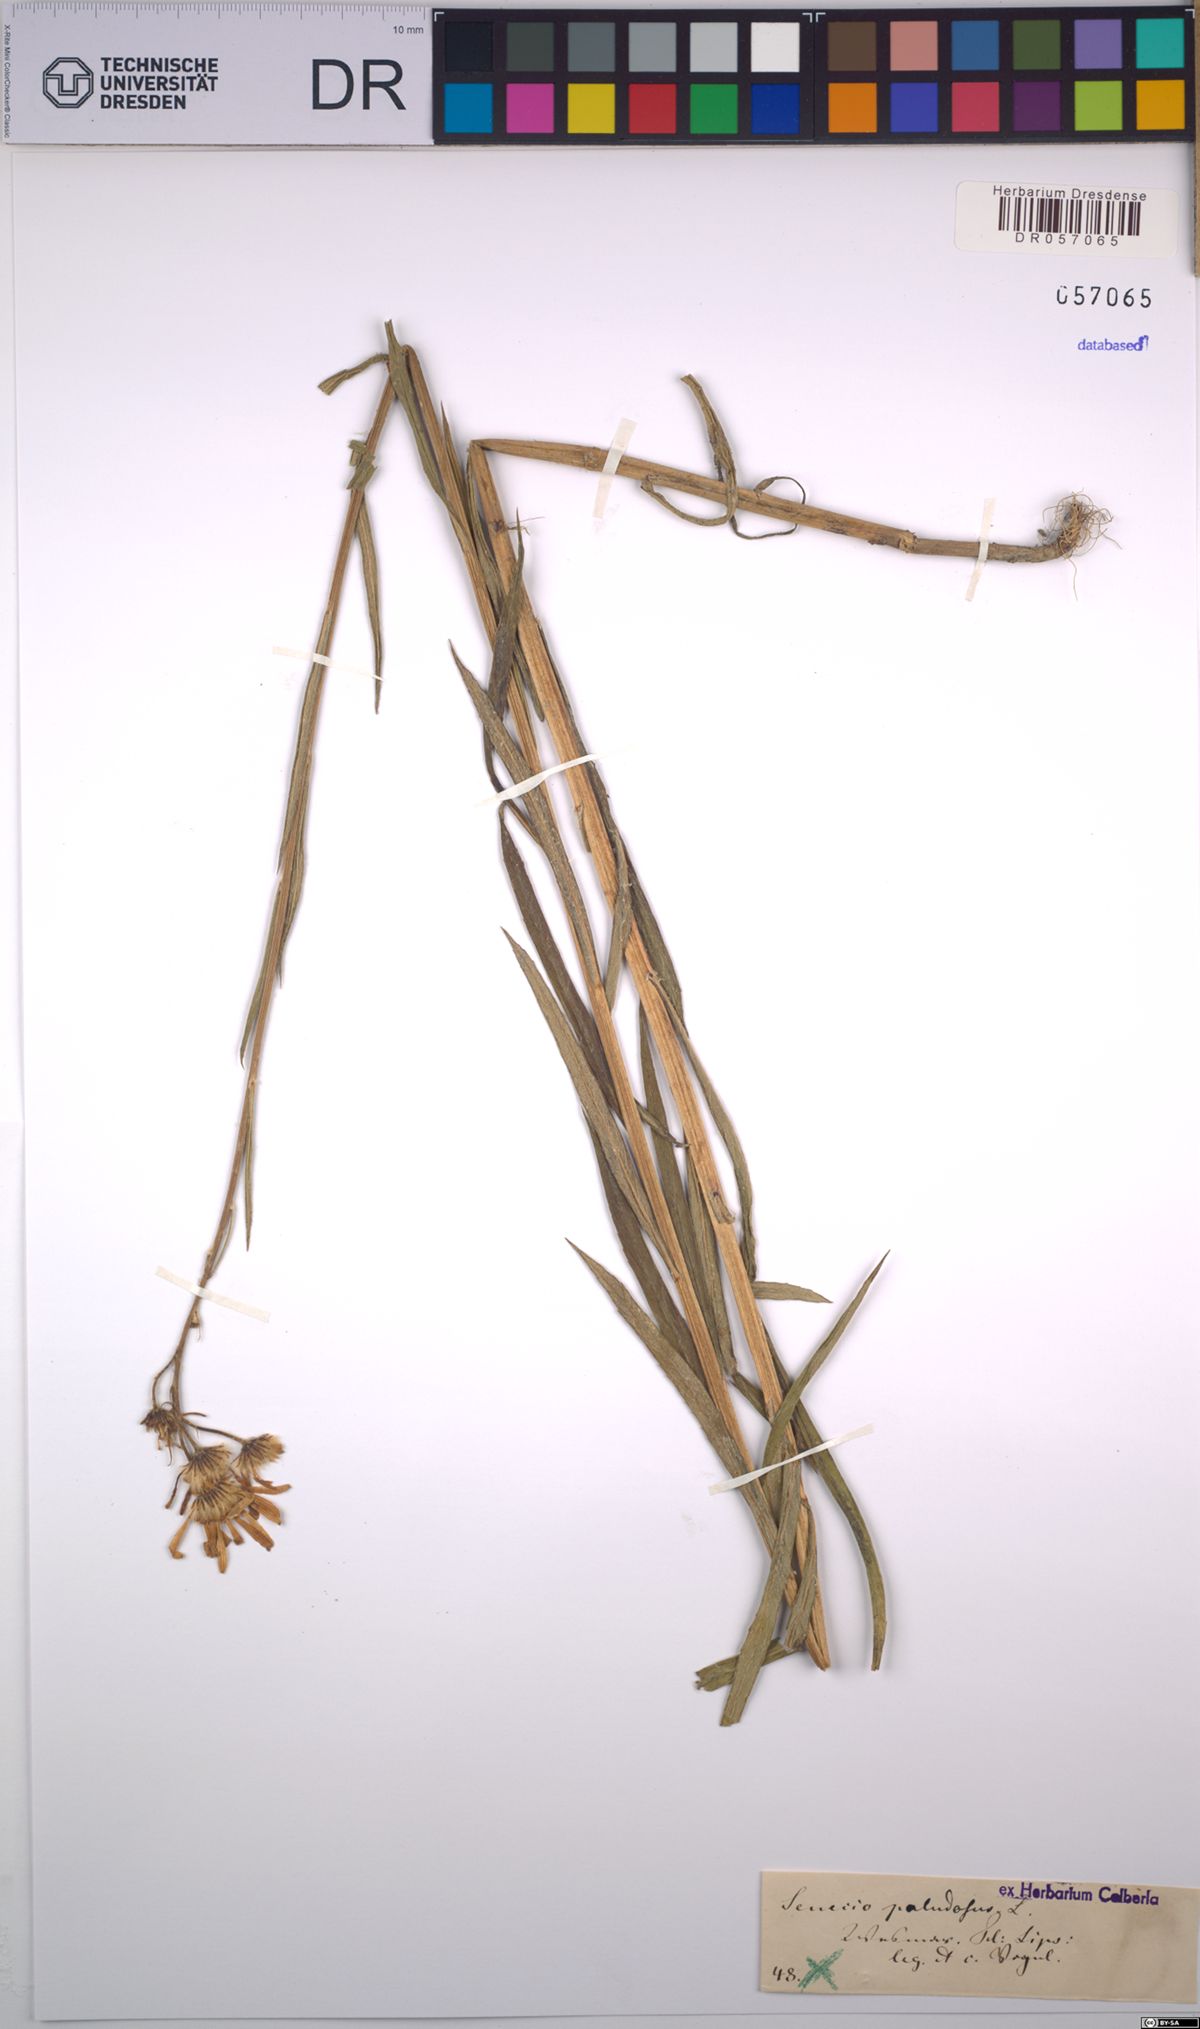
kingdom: Plantae
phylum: Tracheophyta
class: Magnoliopsida
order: Asterales
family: Asteraceae
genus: Jacobaea
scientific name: Jacobaea paludosa
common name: Fen ragwort
